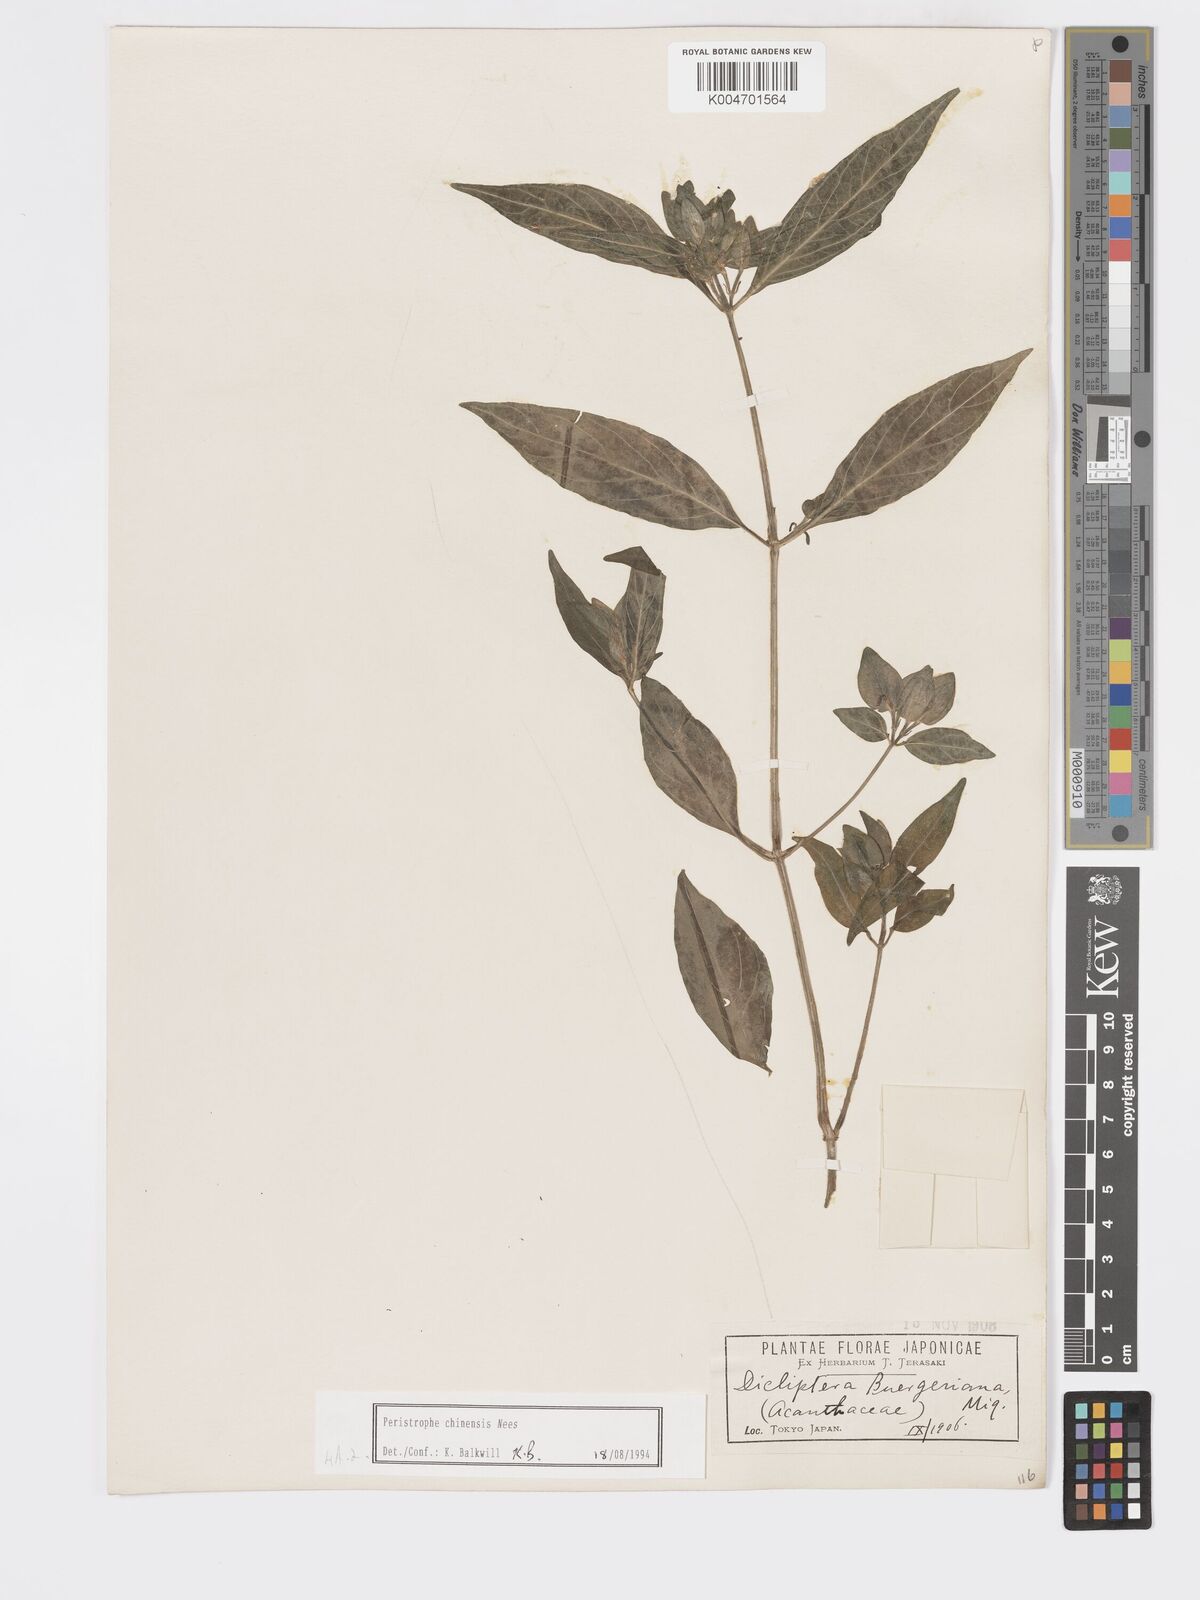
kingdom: Plantae
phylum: Tracheophyta
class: Magnoliopsida
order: Lamiales
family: Acanthaceae
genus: Dicliptera
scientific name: Dicliptera chinensis
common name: Chinese foldwing
